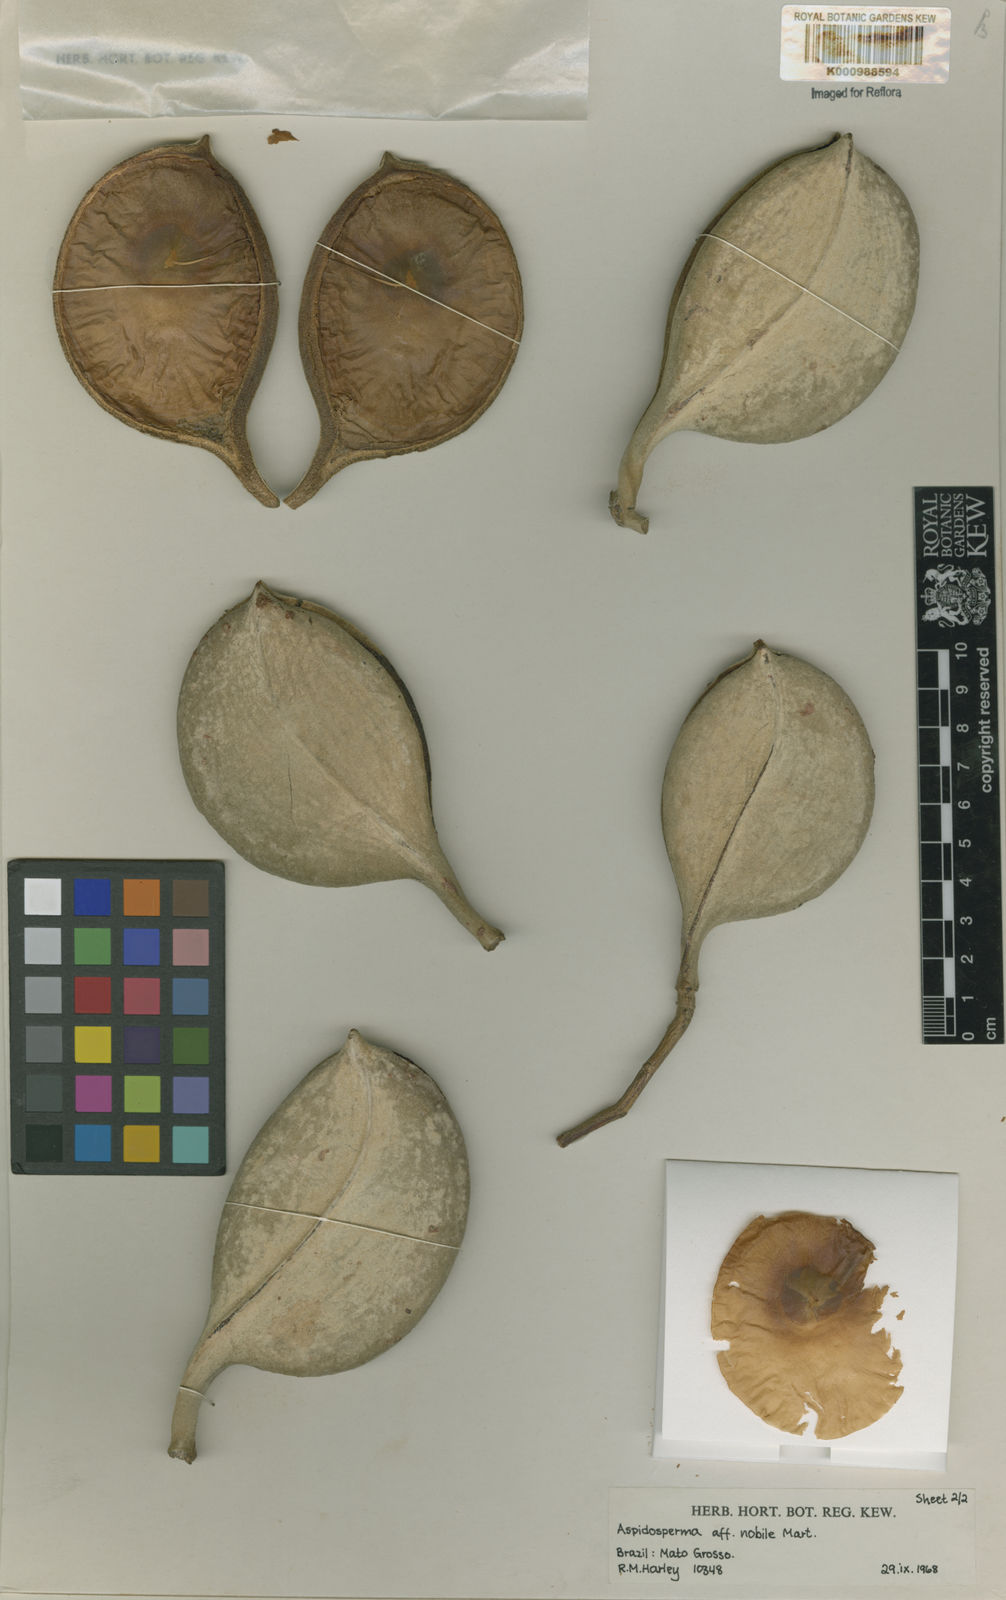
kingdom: Plantae
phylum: Tracheophyta
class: Magnoliopsida
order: Gentianales
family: Apocynaceae
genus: Aspidosperma
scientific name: Aspidosperma
